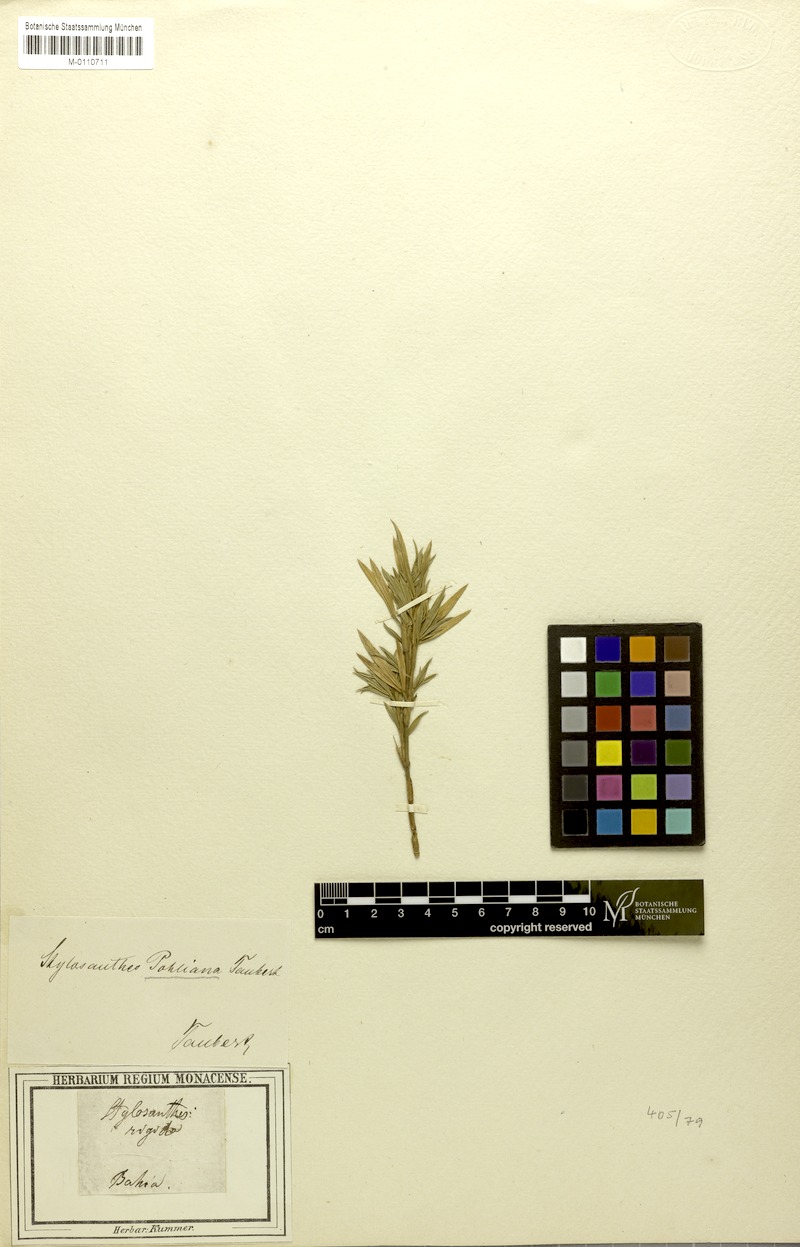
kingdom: Plantae
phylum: Tracheophyta
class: Magnoliopsida
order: Fabales
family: Fabaceae
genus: Stylosanthes
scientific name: Stylosanthes guianensis
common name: Pencil flower
